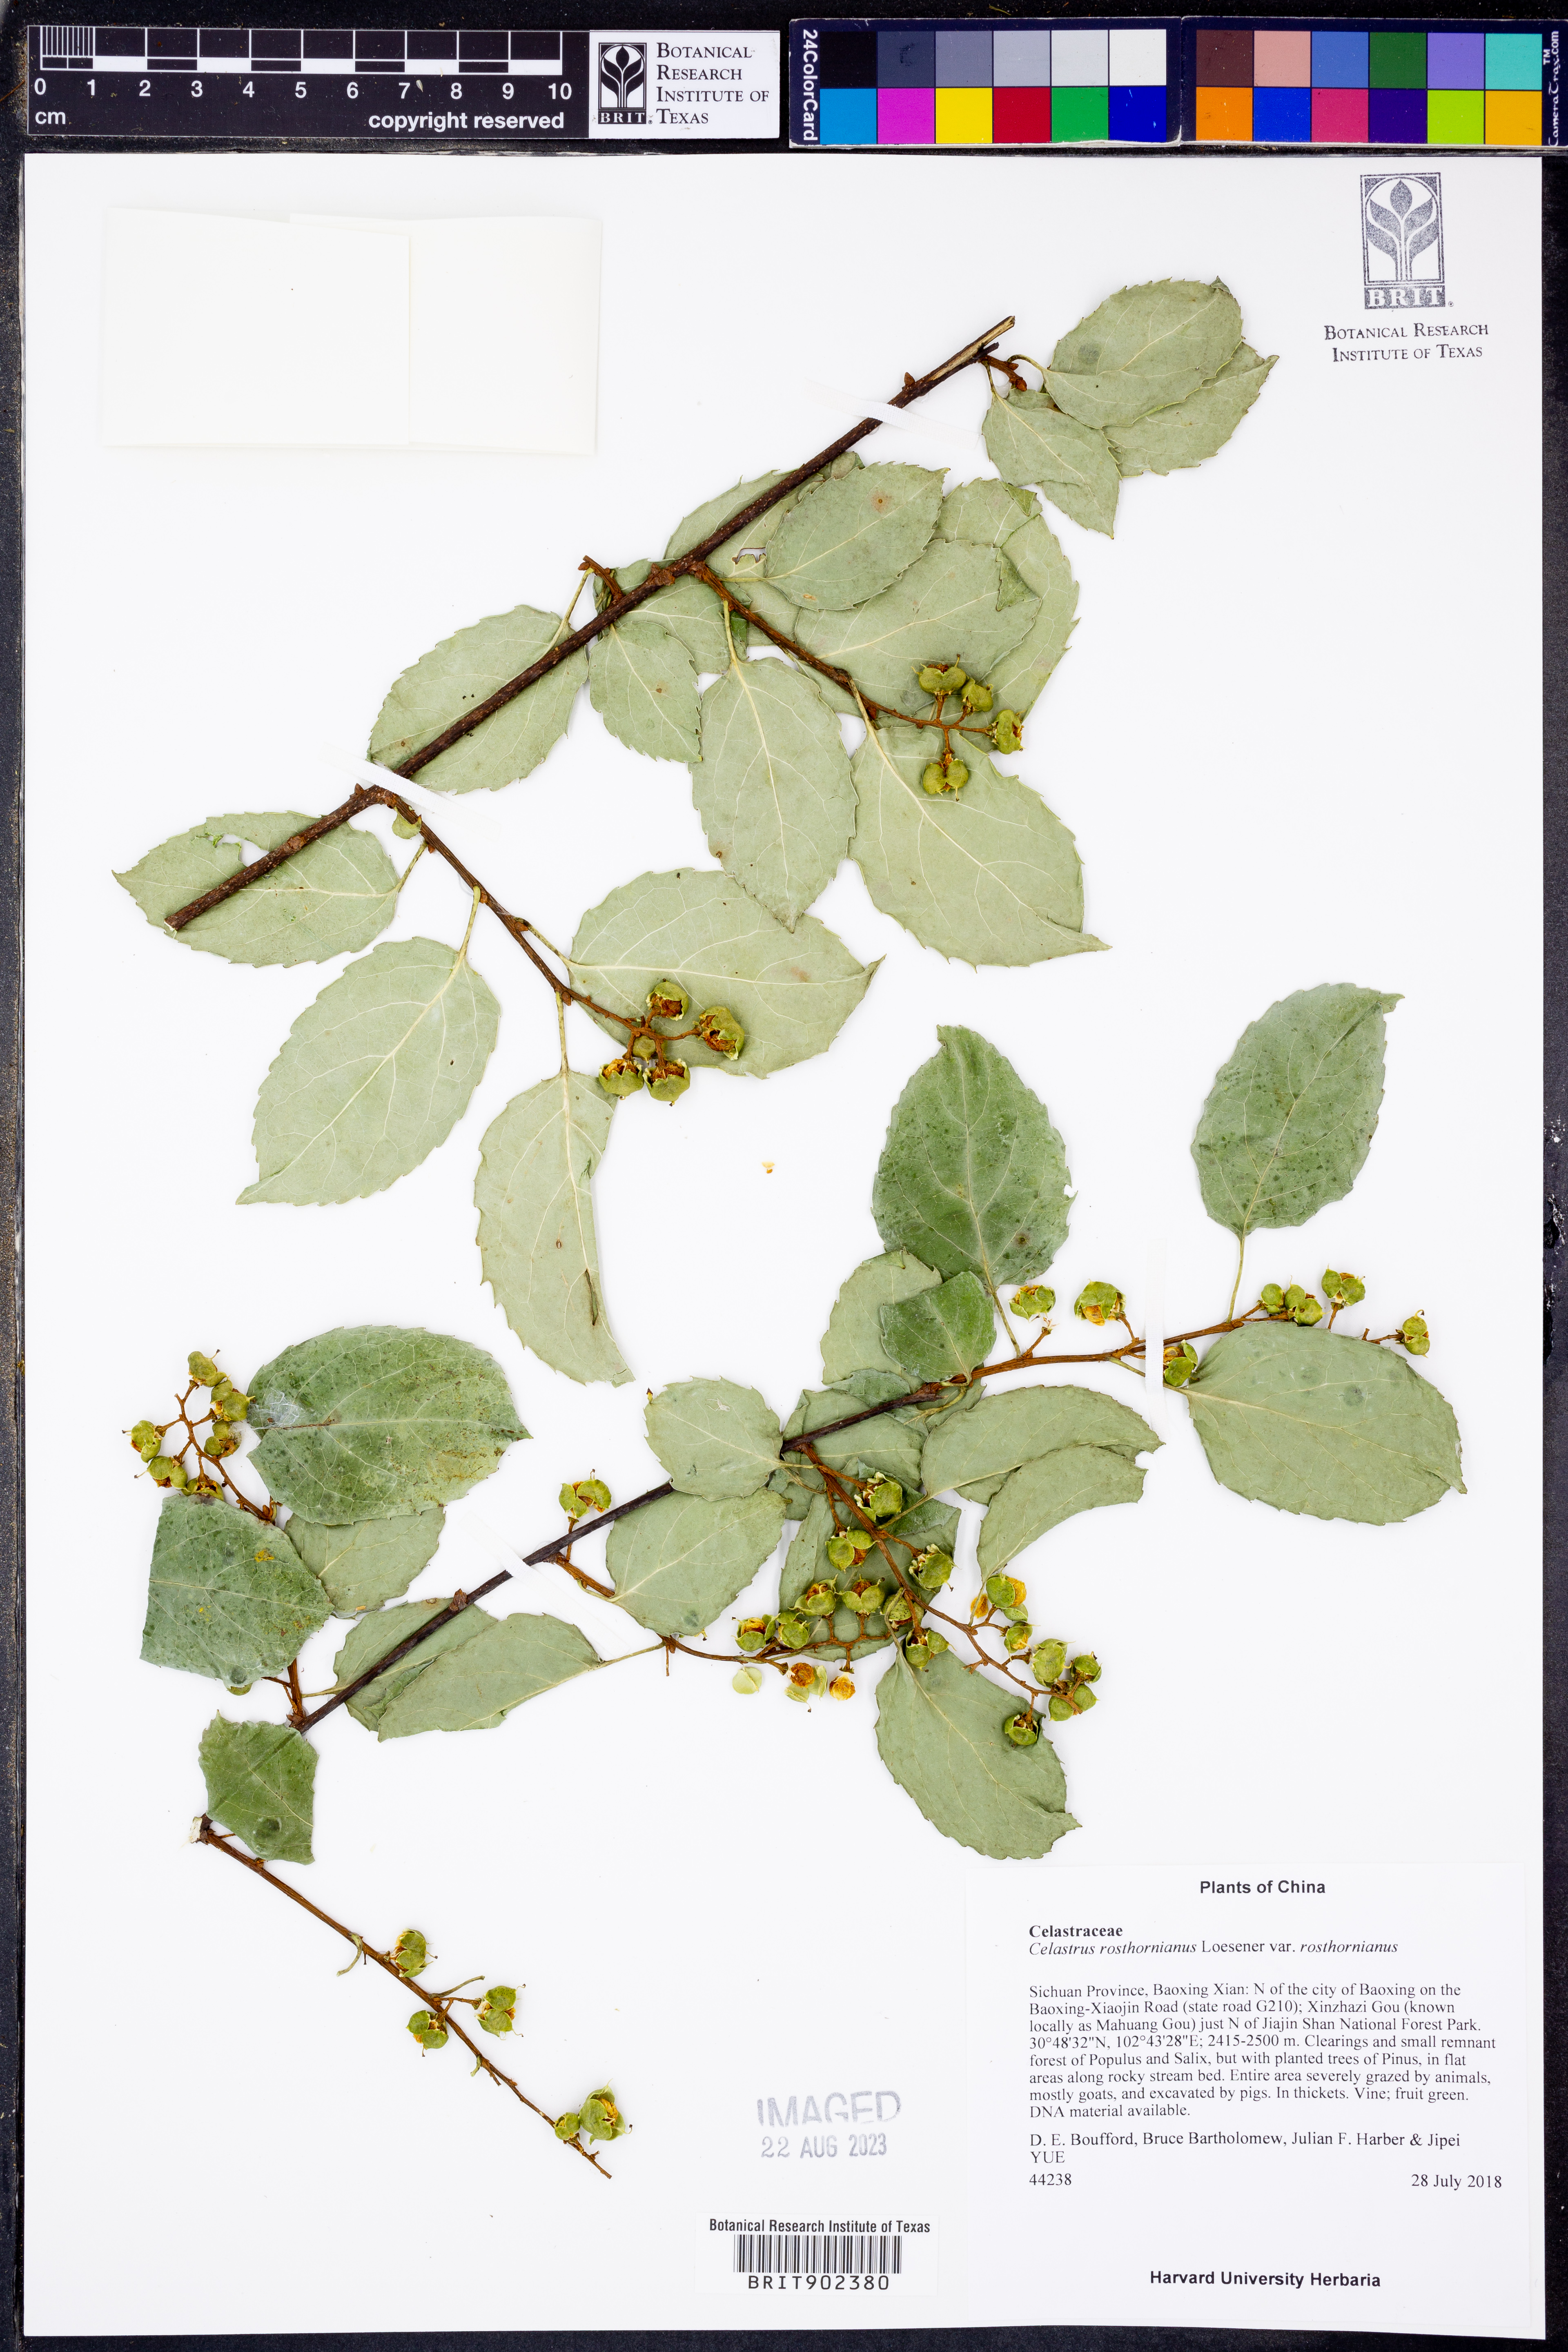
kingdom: Plantae
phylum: Tracheophyta
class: Magnoliopsida
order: Celastrales
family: Celastraceae
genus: Celastrus
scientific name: Celastrus rosthornianus
